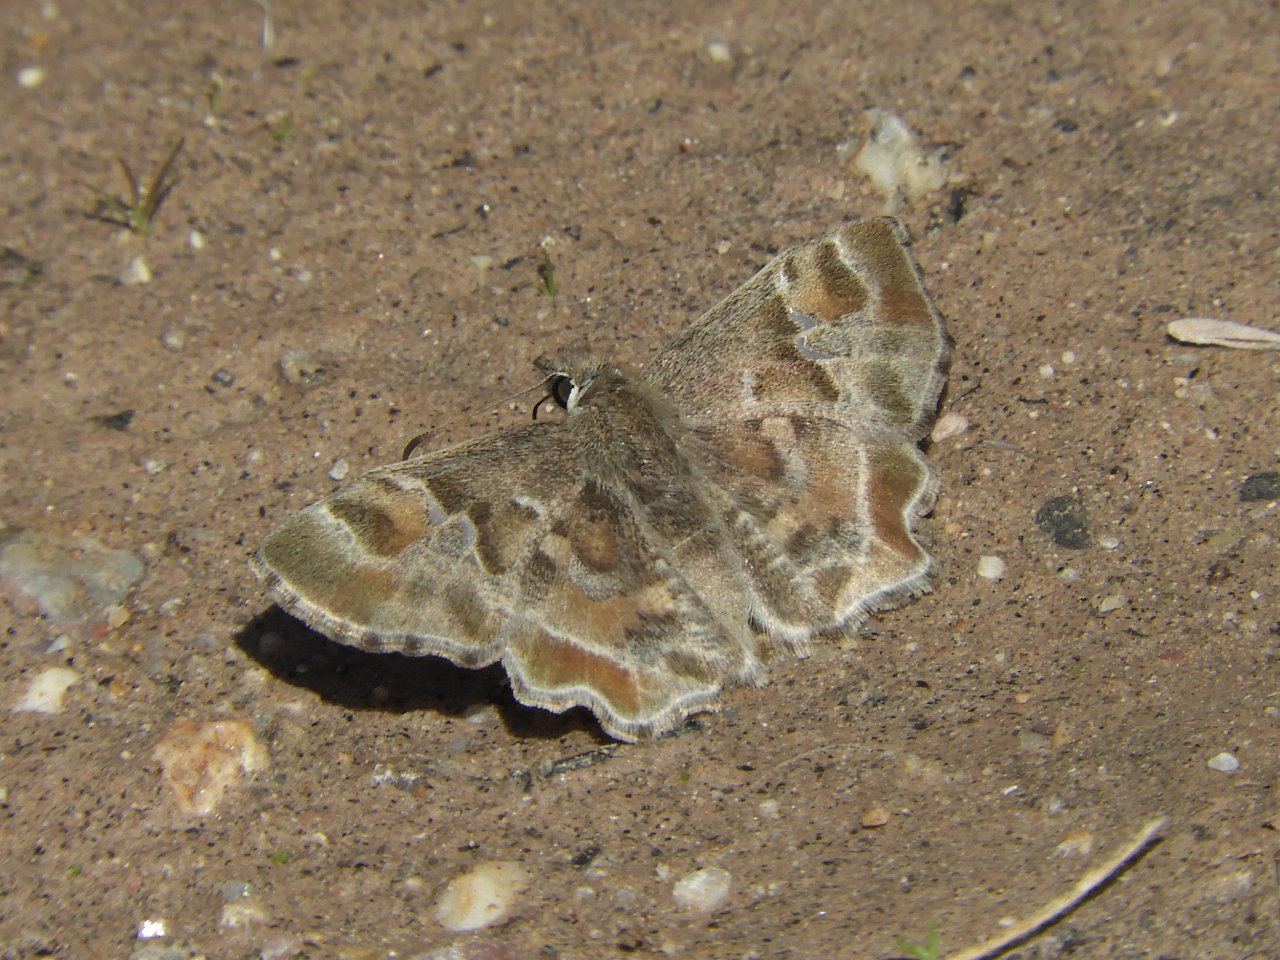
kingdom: Animalia
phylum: Arthropoda
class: Insecta
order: Lepidoptera
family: Hesperiidae
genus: Systasea
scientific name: Systasea zampa
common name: Arizona Powdered-Skipper
